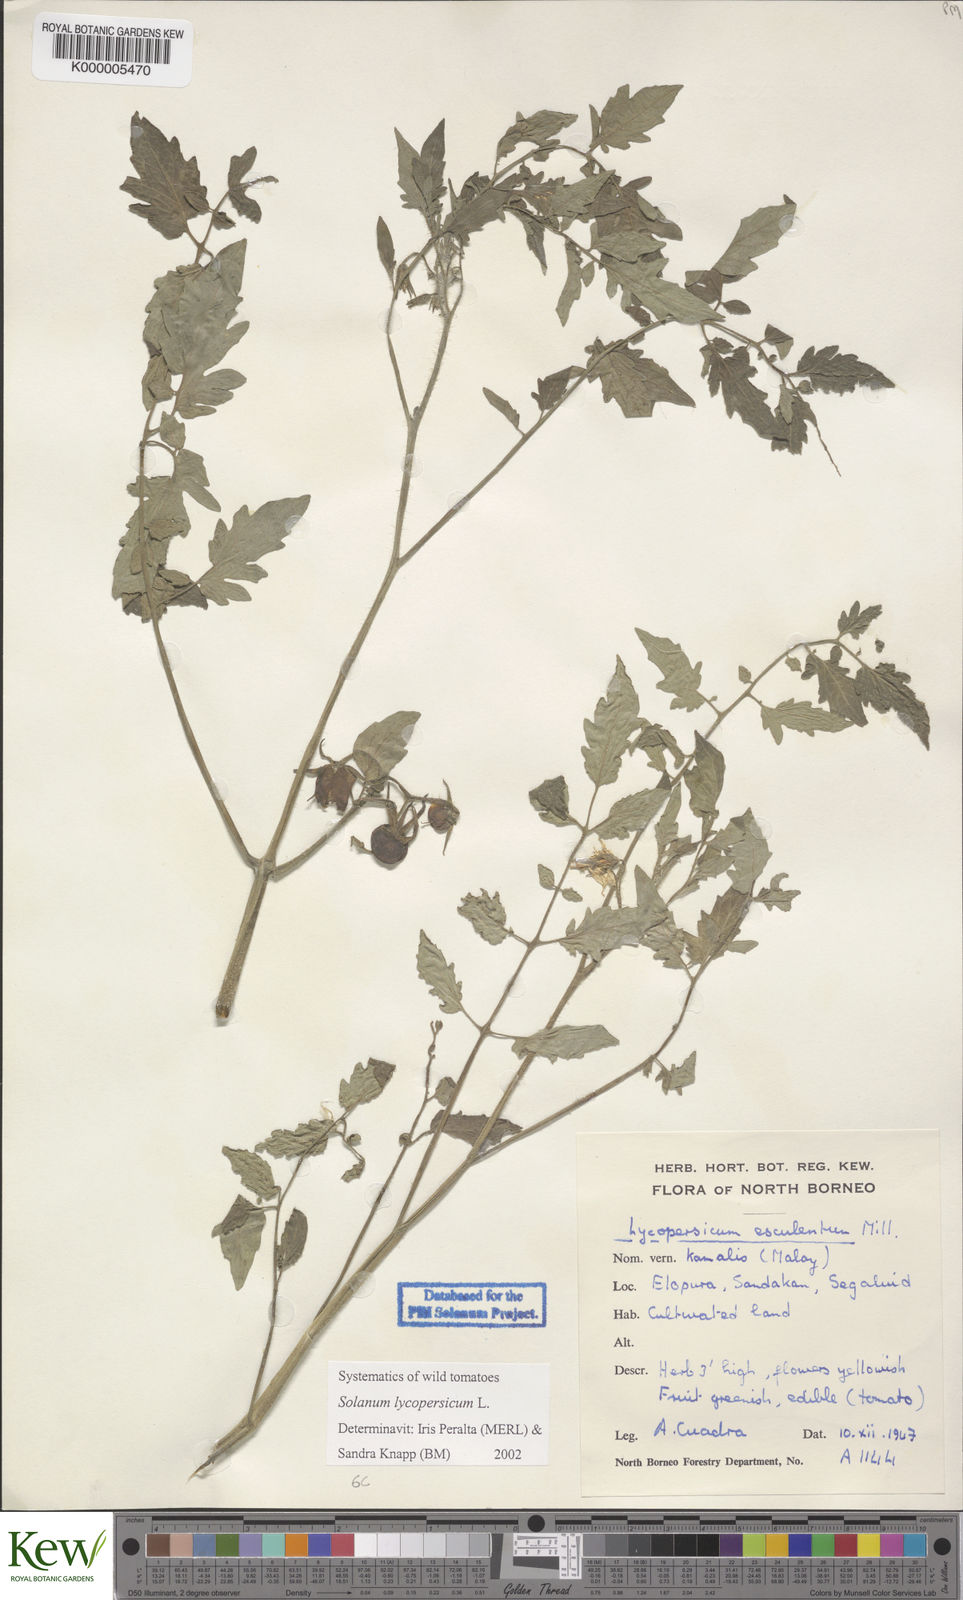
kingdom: Plantae
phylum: Tracheophyta
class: Magnoliopsida
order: Solanales
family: Solanaceae
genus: Solanum
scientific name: Solanum lycopersicum
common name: Garden tomato
